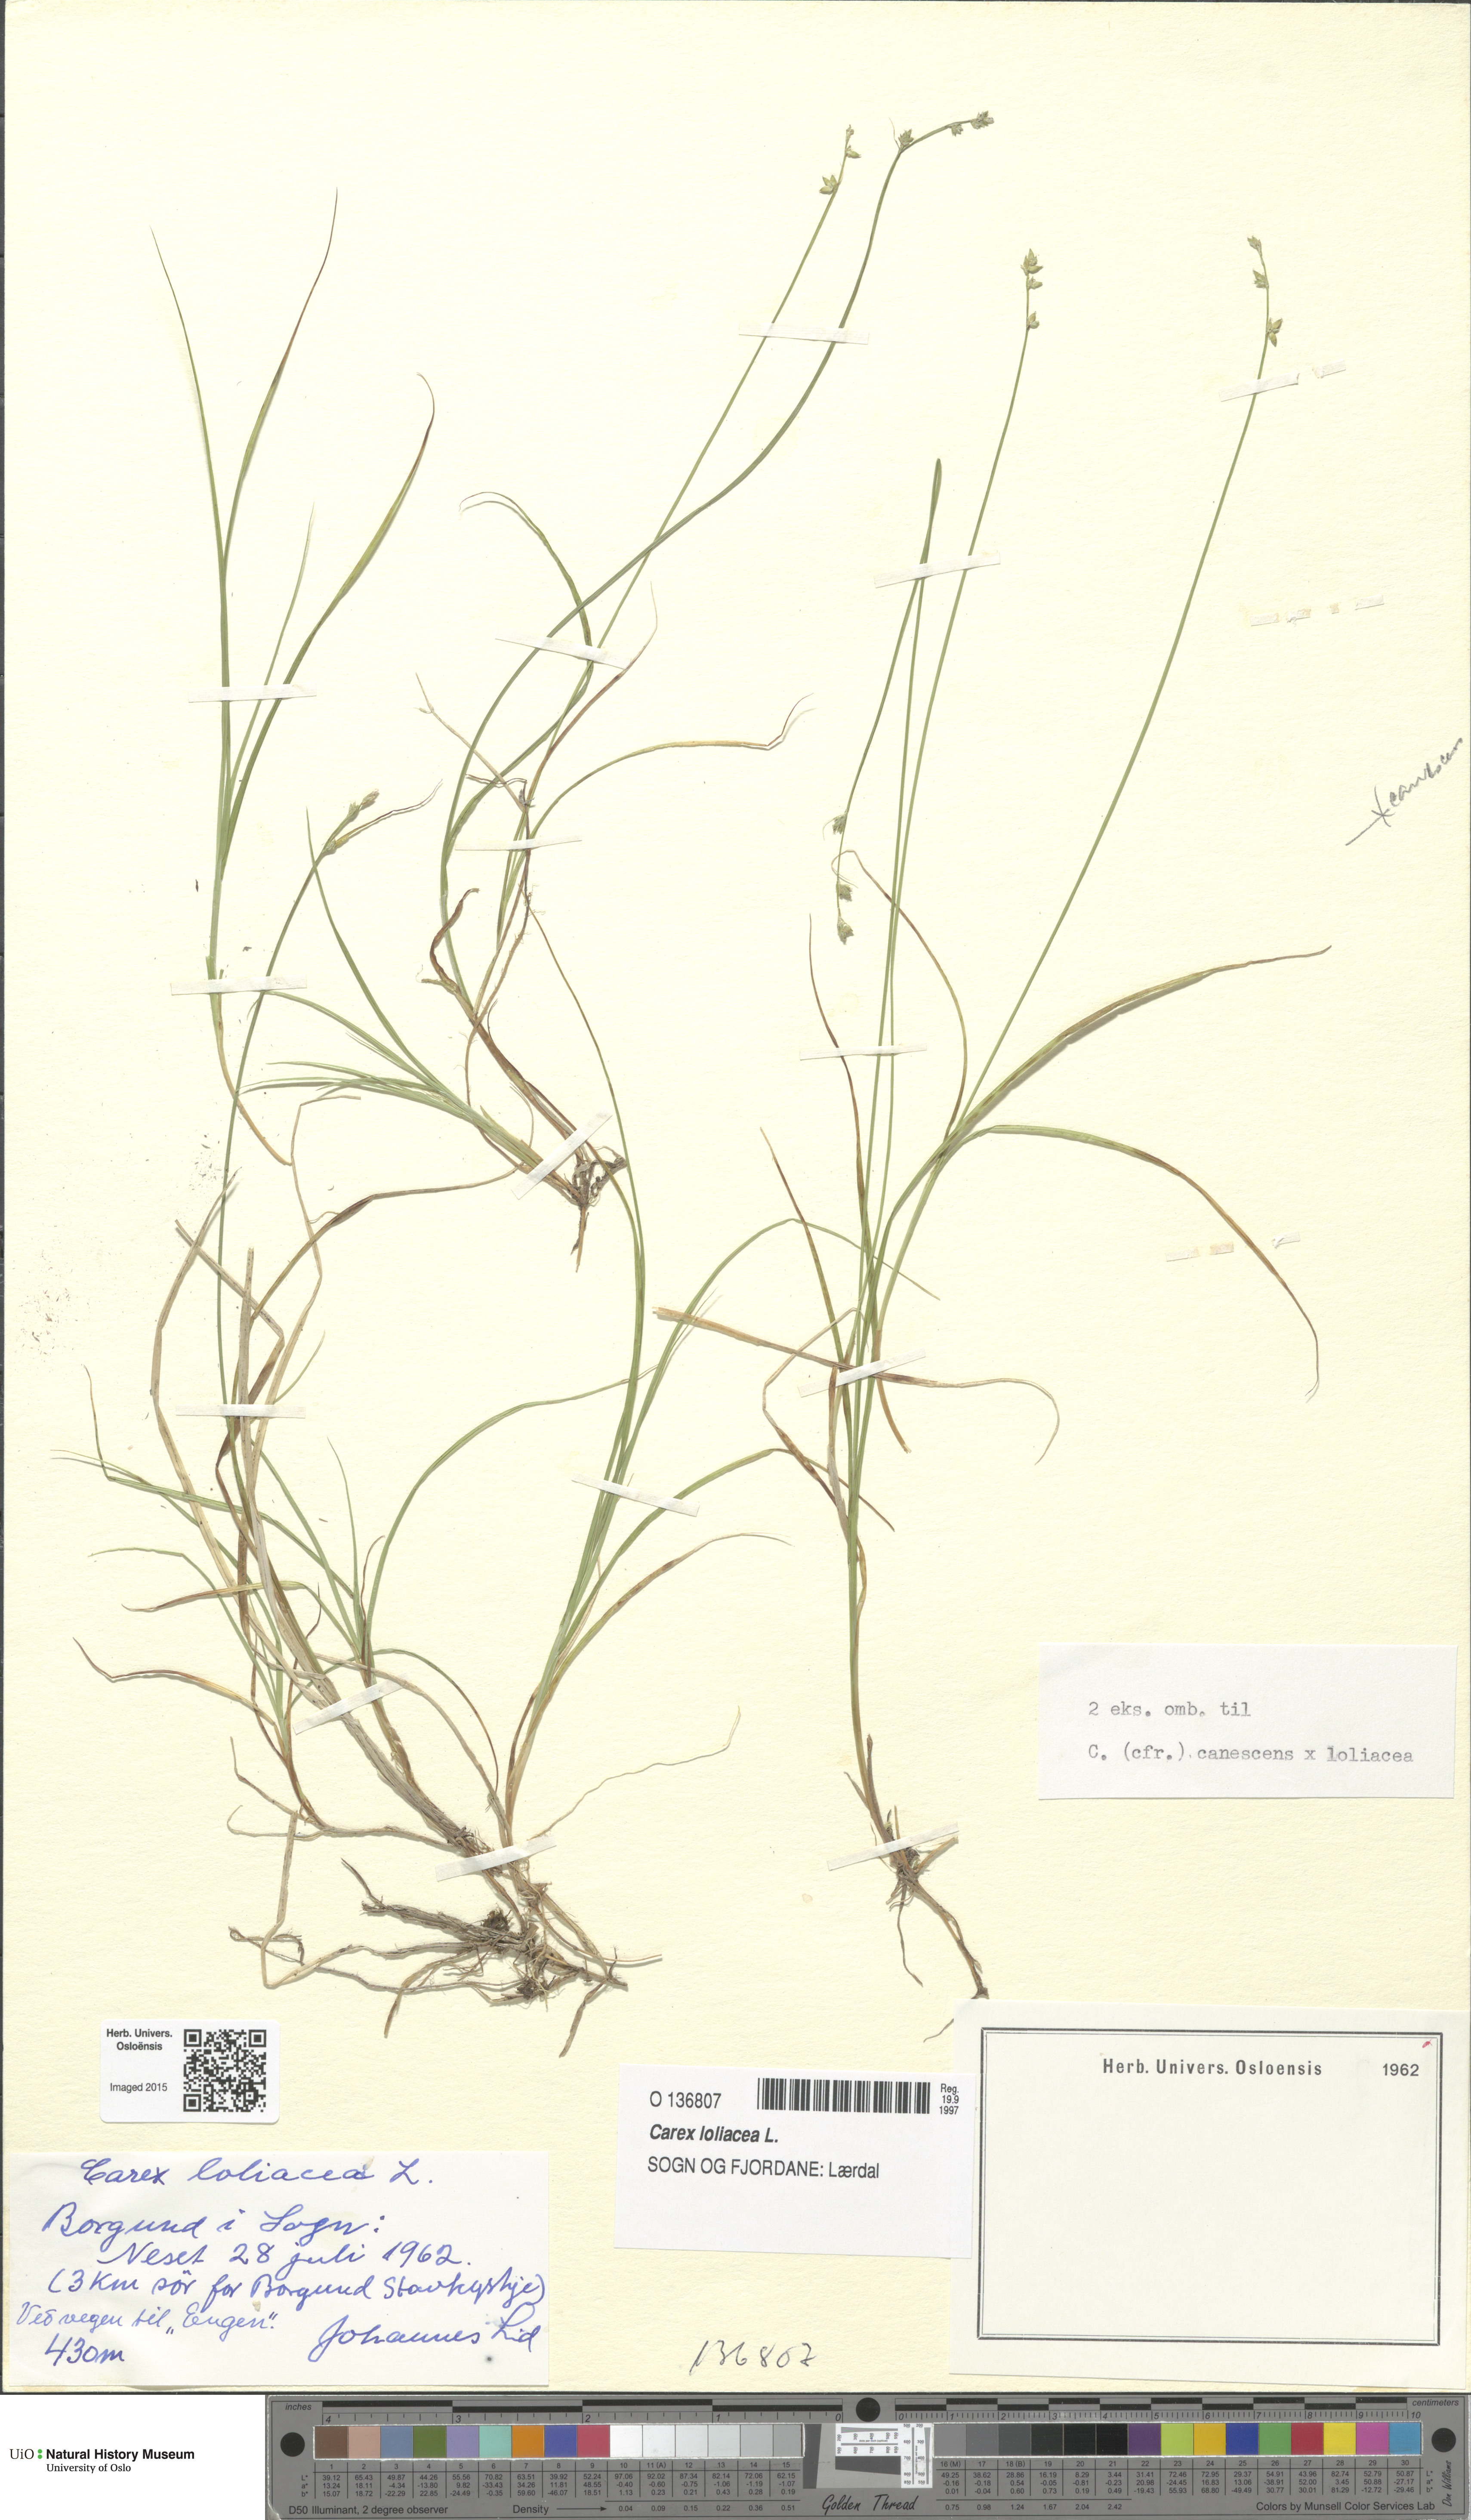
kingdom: Plantae
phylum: Tracheophyta
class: Liliopsida
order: Poales
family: Cyperaceae
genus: Carex
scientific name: Carex loliacea
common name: Ryegrass sedge
